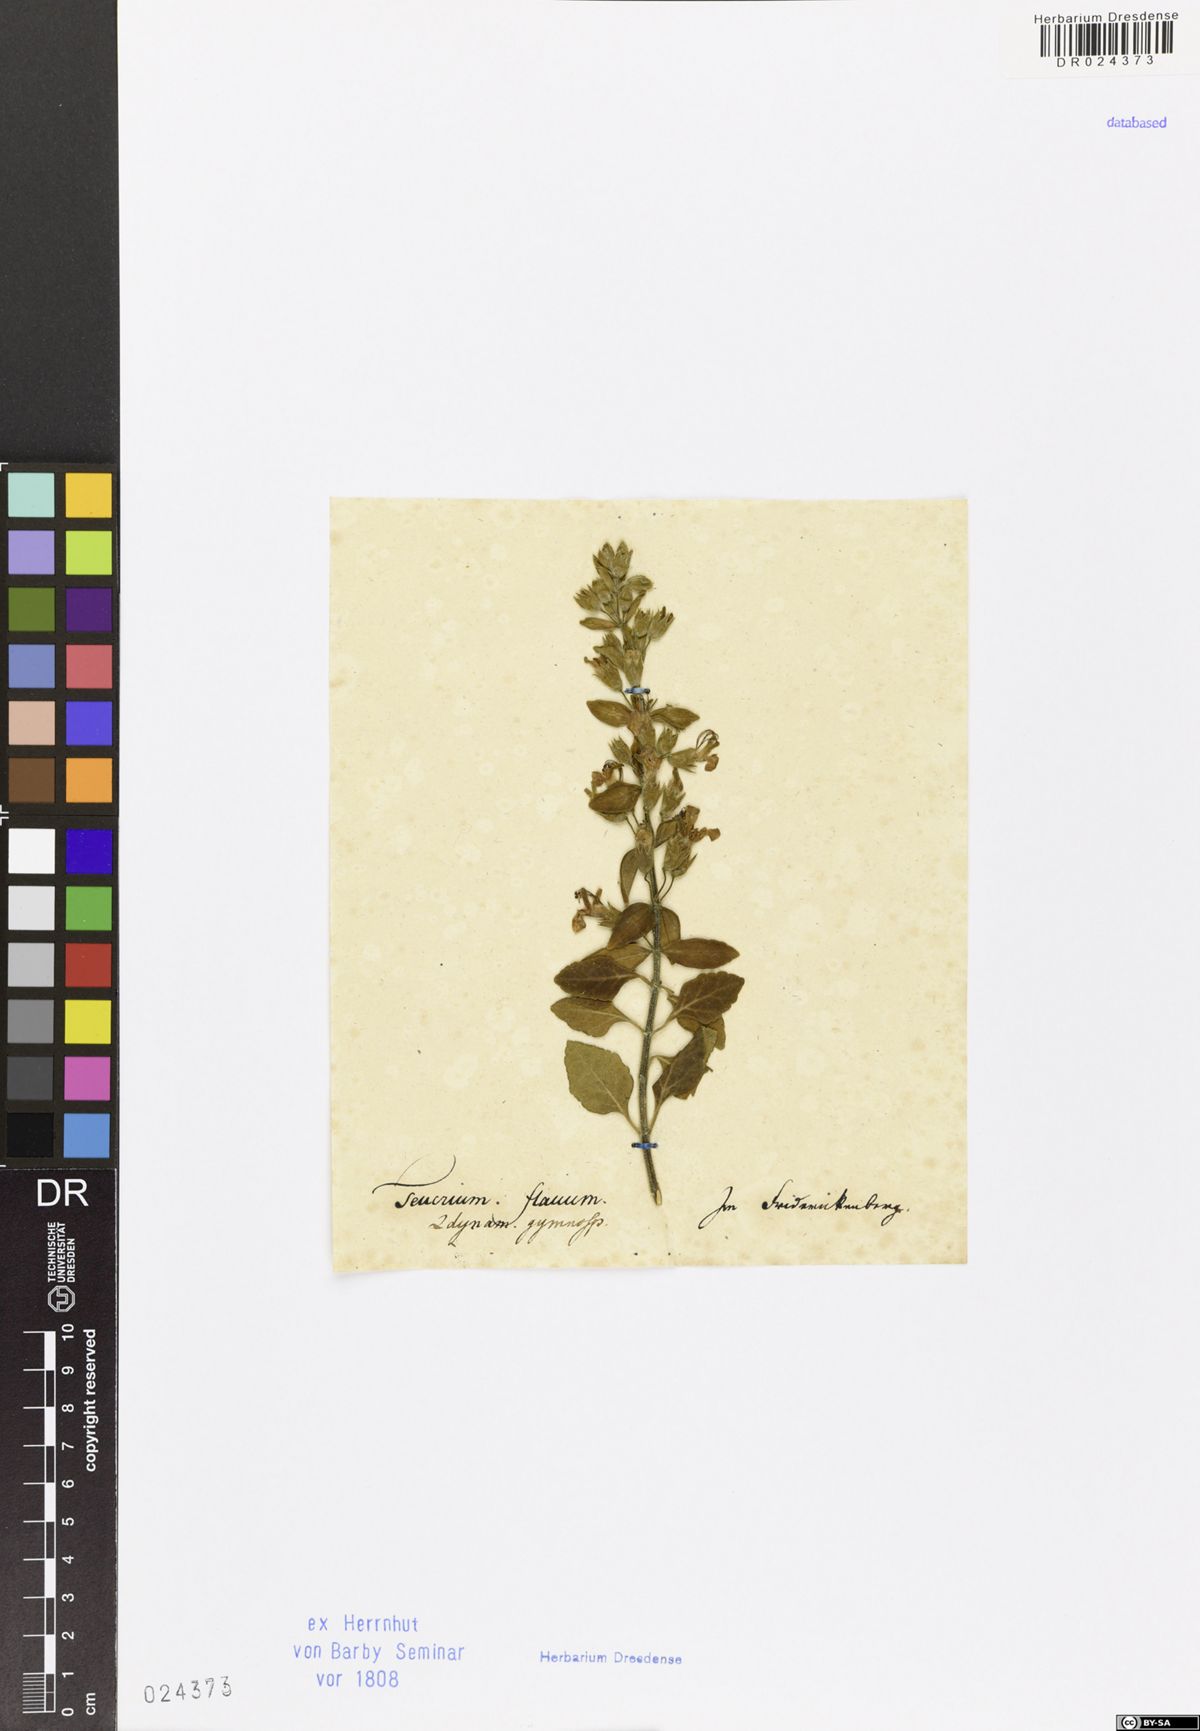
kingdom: Plantae
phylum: Tracheophyta
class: Magnoliopsida
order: Lamiales
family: Lamiaceae
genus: Teucrium
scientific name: Teucrium flavum
